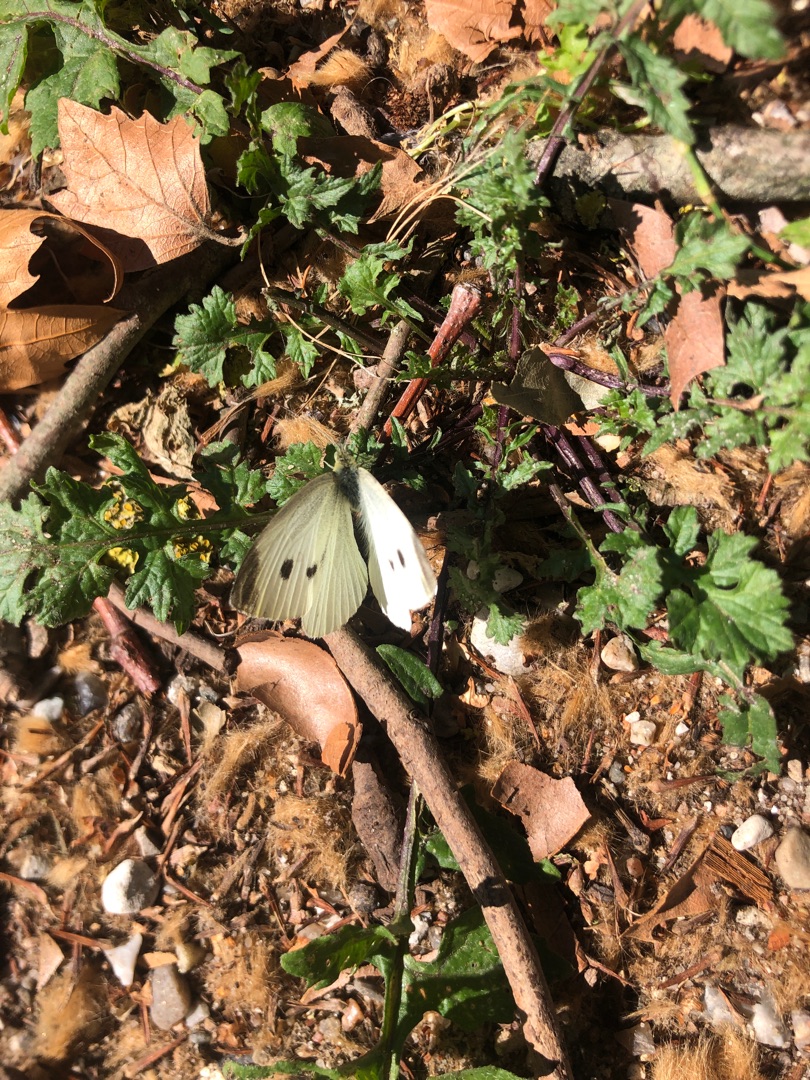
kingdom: Animalia
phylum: Arthropoda
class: Insecta
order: Lepidoptera
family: Pieridae
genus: Pieris
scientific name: Pieris rapae
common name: Lille kålsommerfugl
